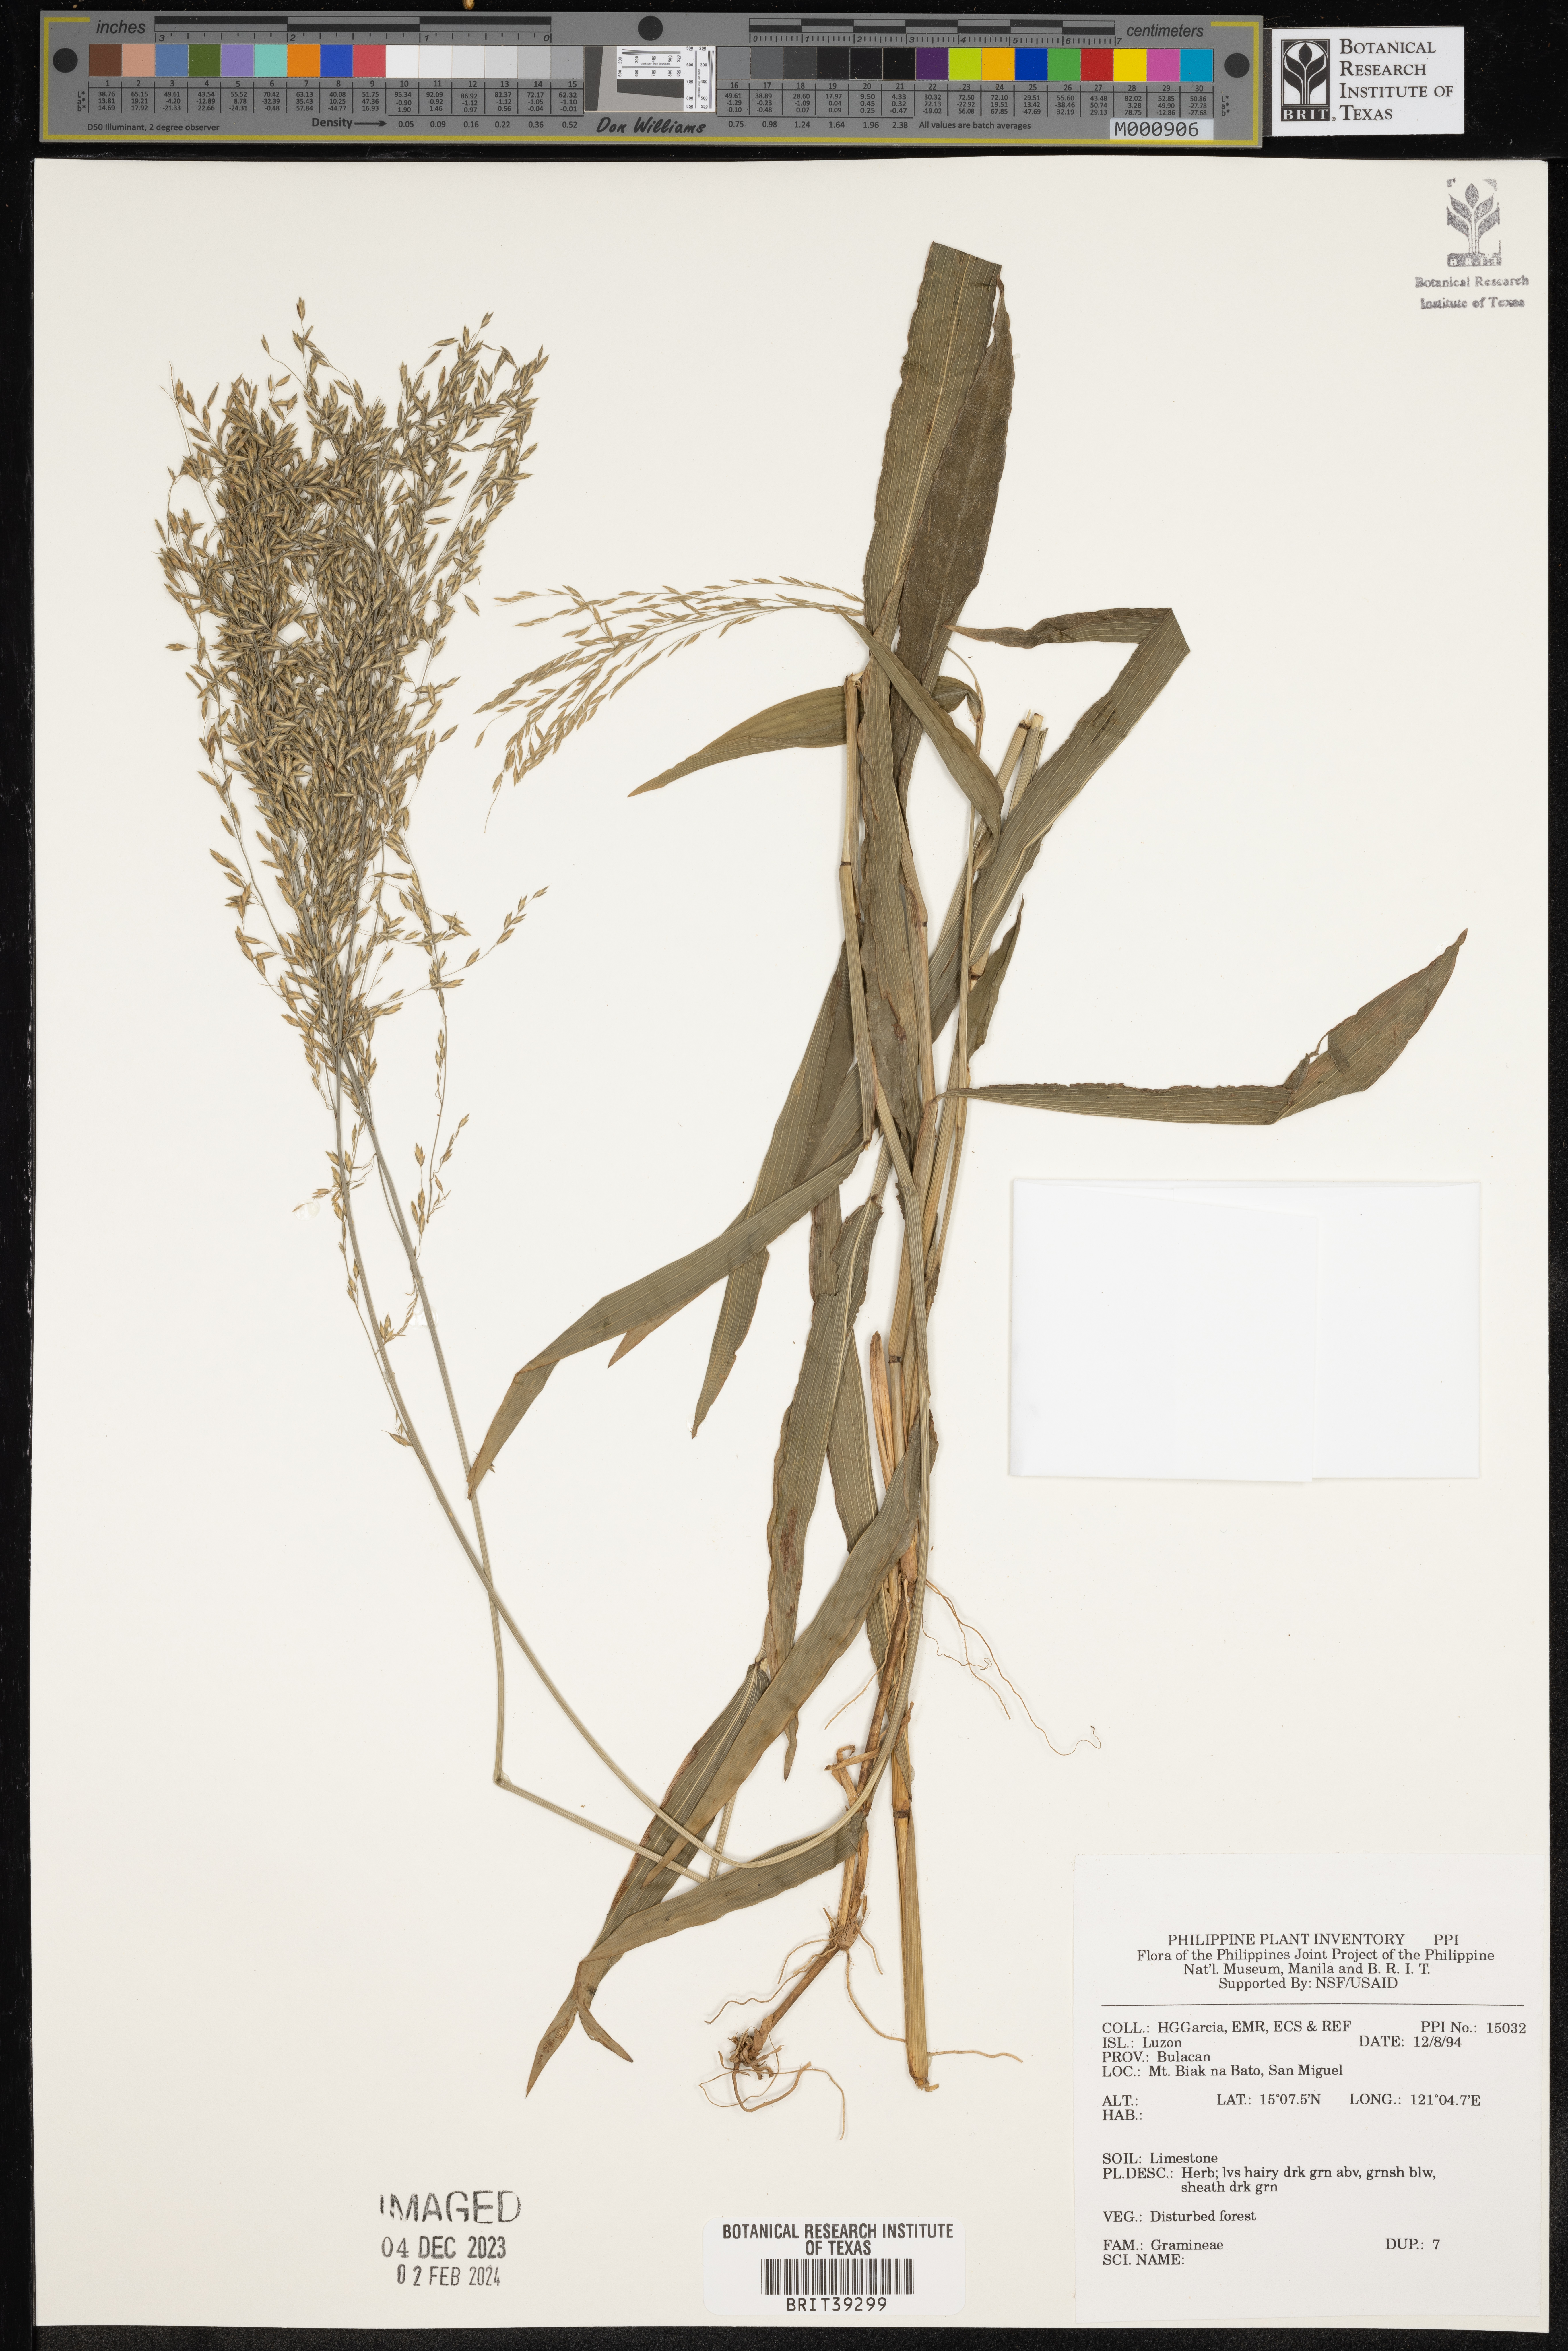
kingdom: Plantae
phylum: Tracheophyta
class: Liliopsida
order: Poales
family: Poaceae
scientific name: Poaceae
